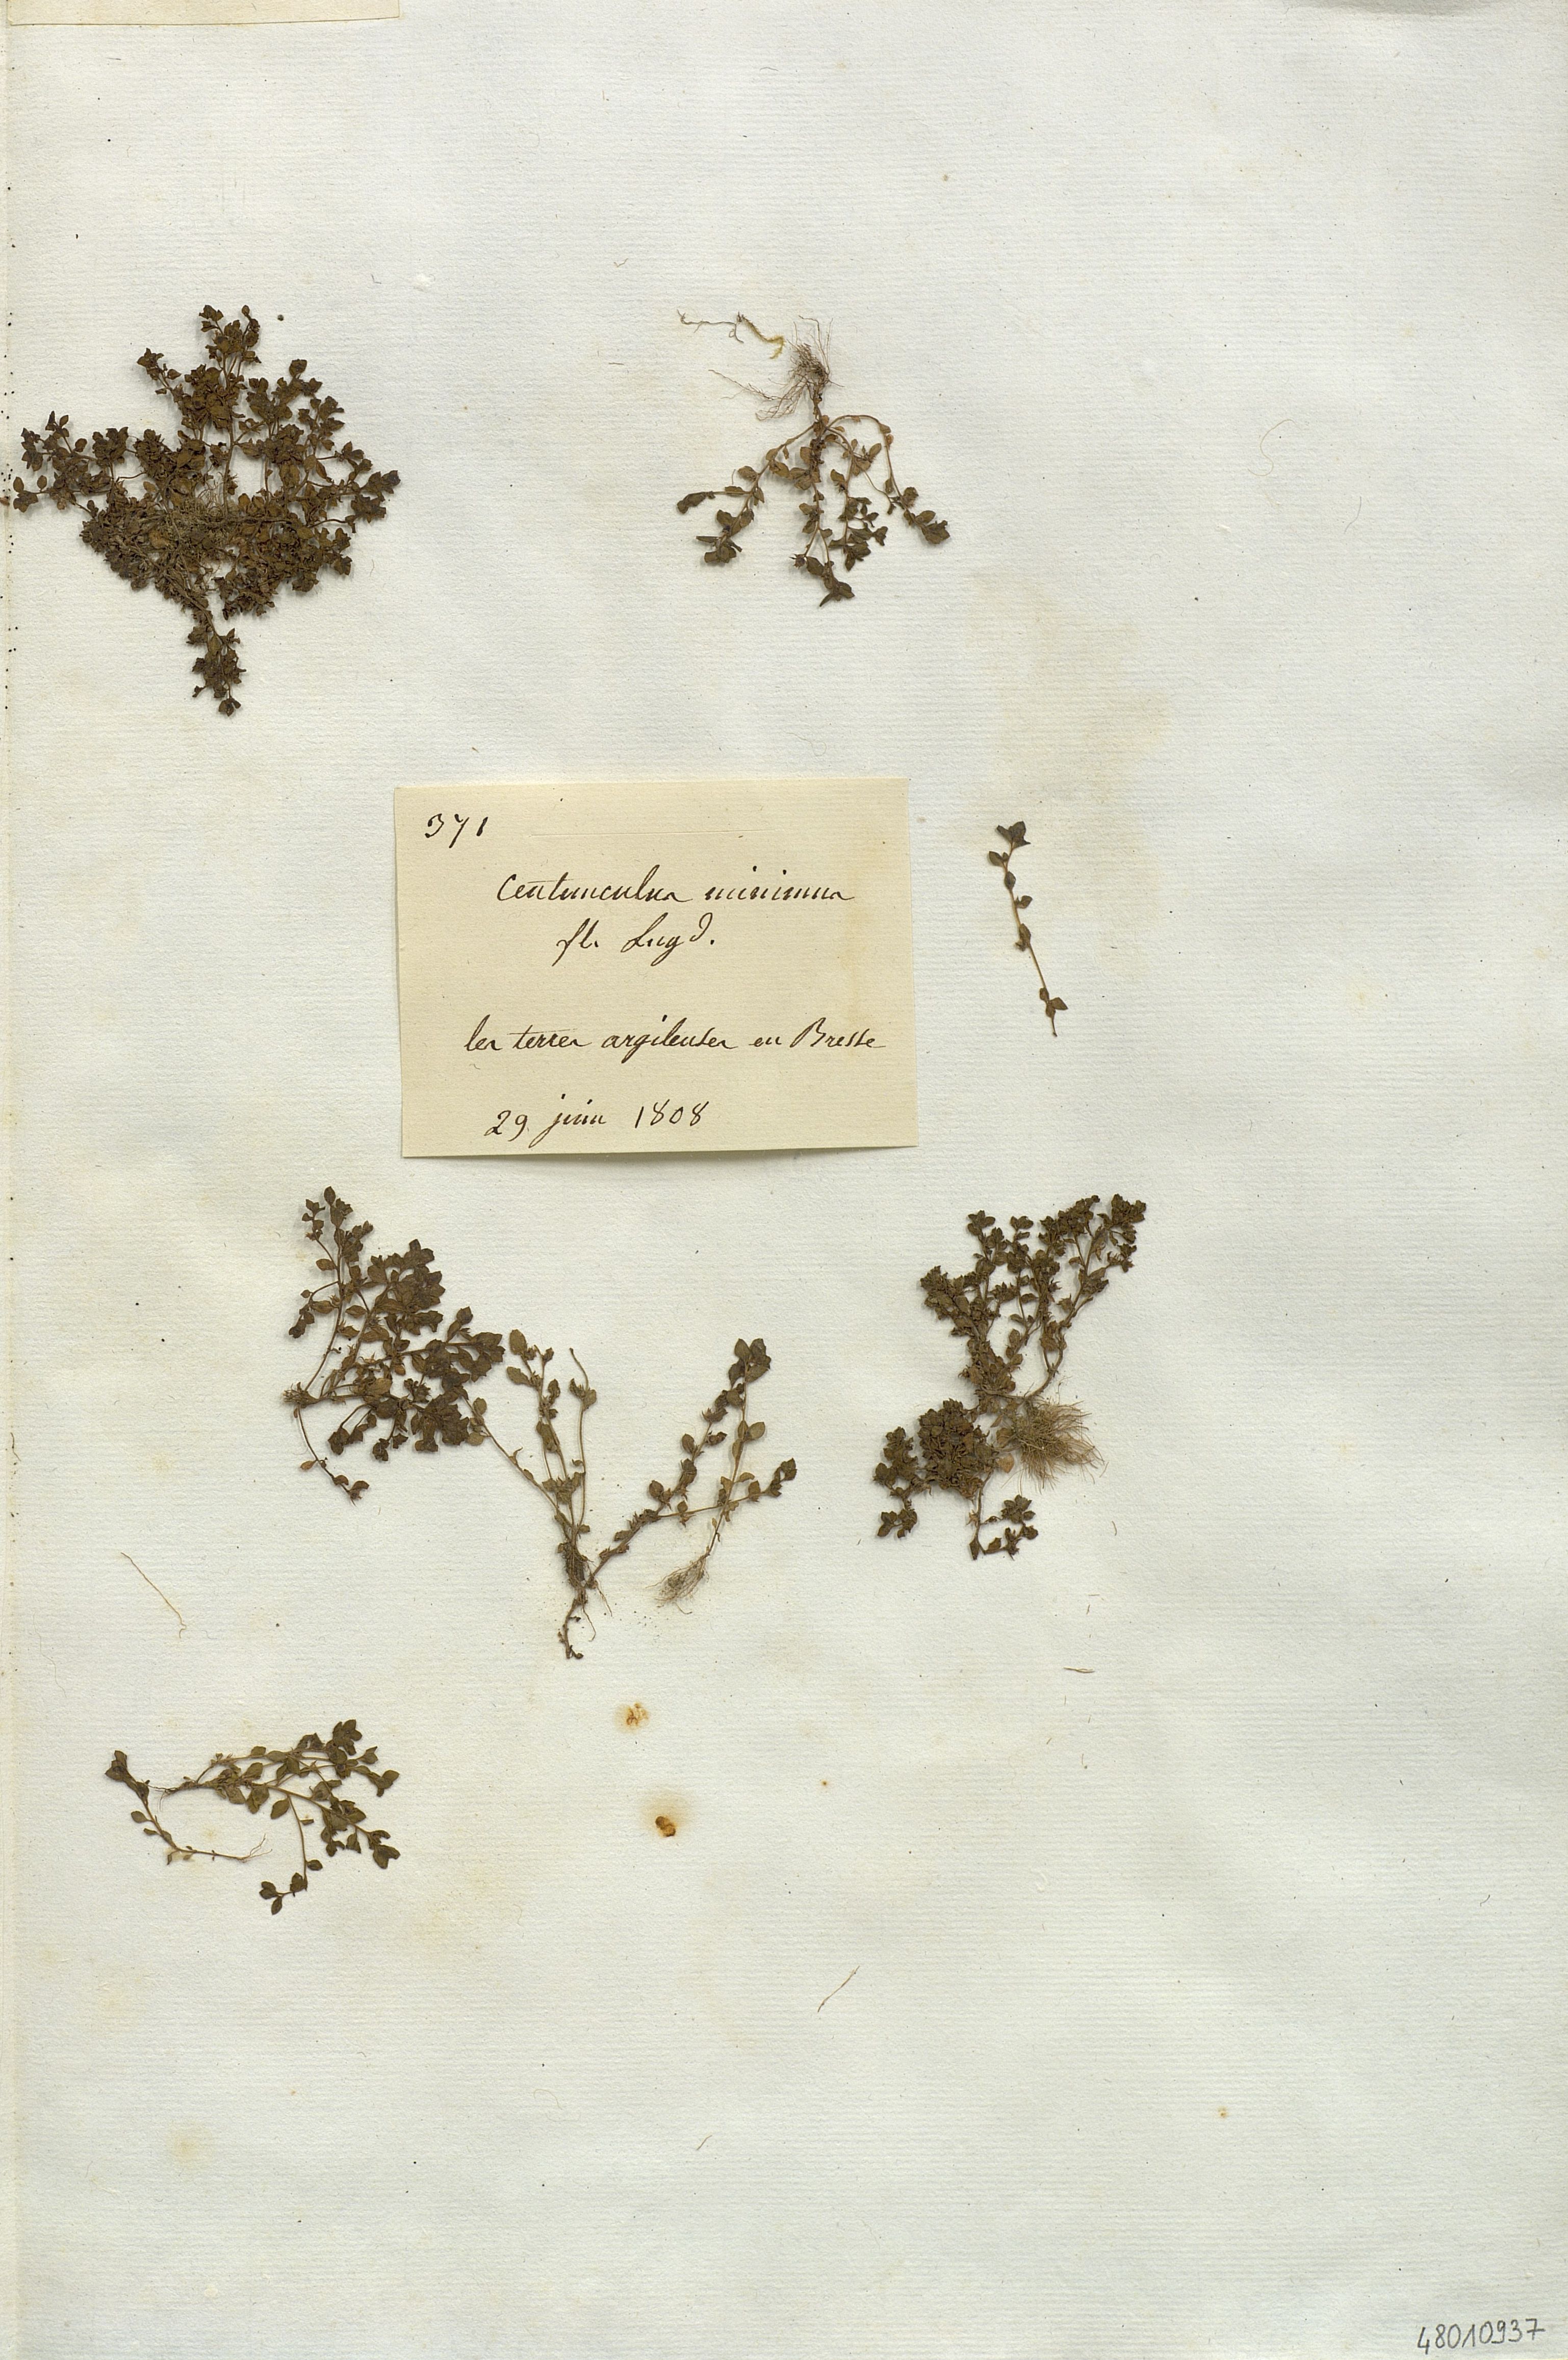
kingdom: Plantae
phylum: Tracheophyta
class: Magnoliopsida
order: Ericales
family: Primulaceae
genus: Lysimachia
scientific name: Lysimachia minima
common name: Chaffweed
